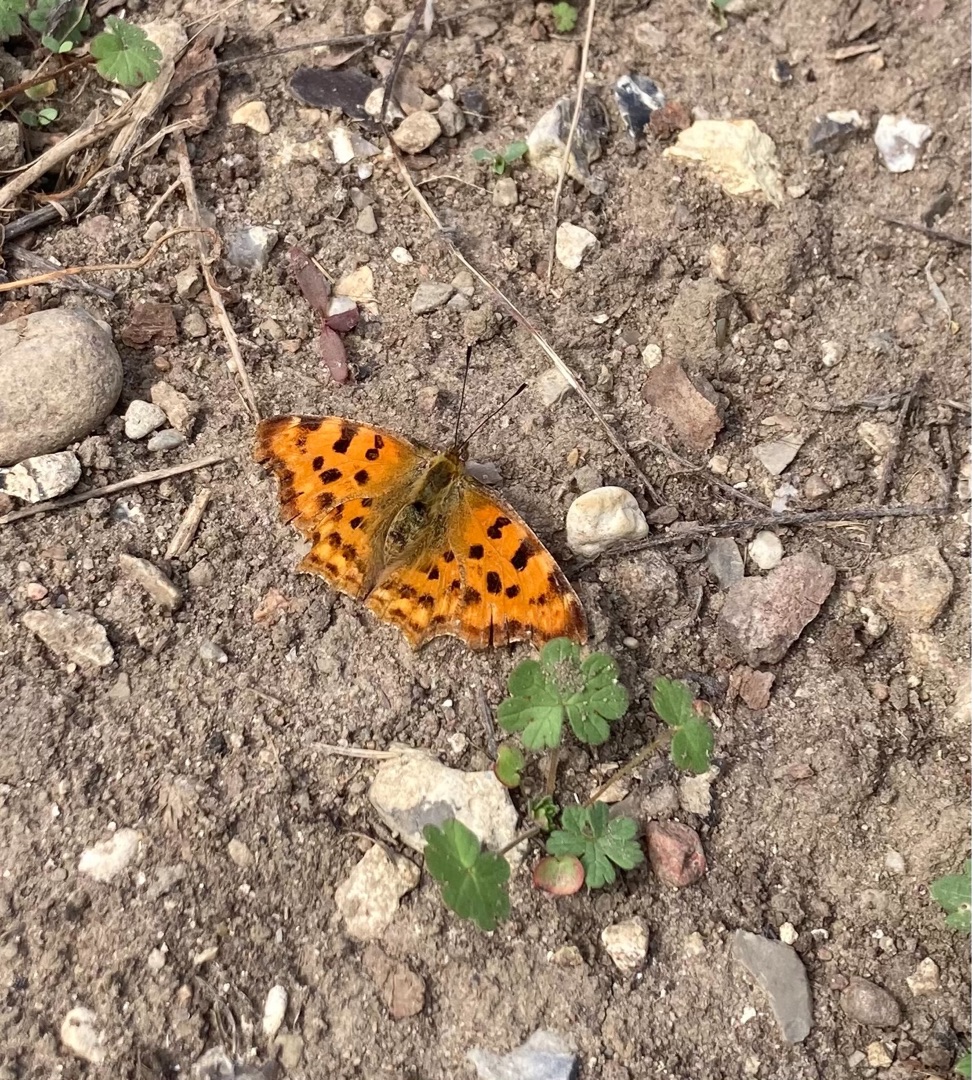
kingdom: Animalia
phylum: Arthropoda
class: Insecta
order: Lepidoptera
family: Nymphalidae
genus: Polygonia
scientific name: Polygonia c-album
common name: Det hvide C
